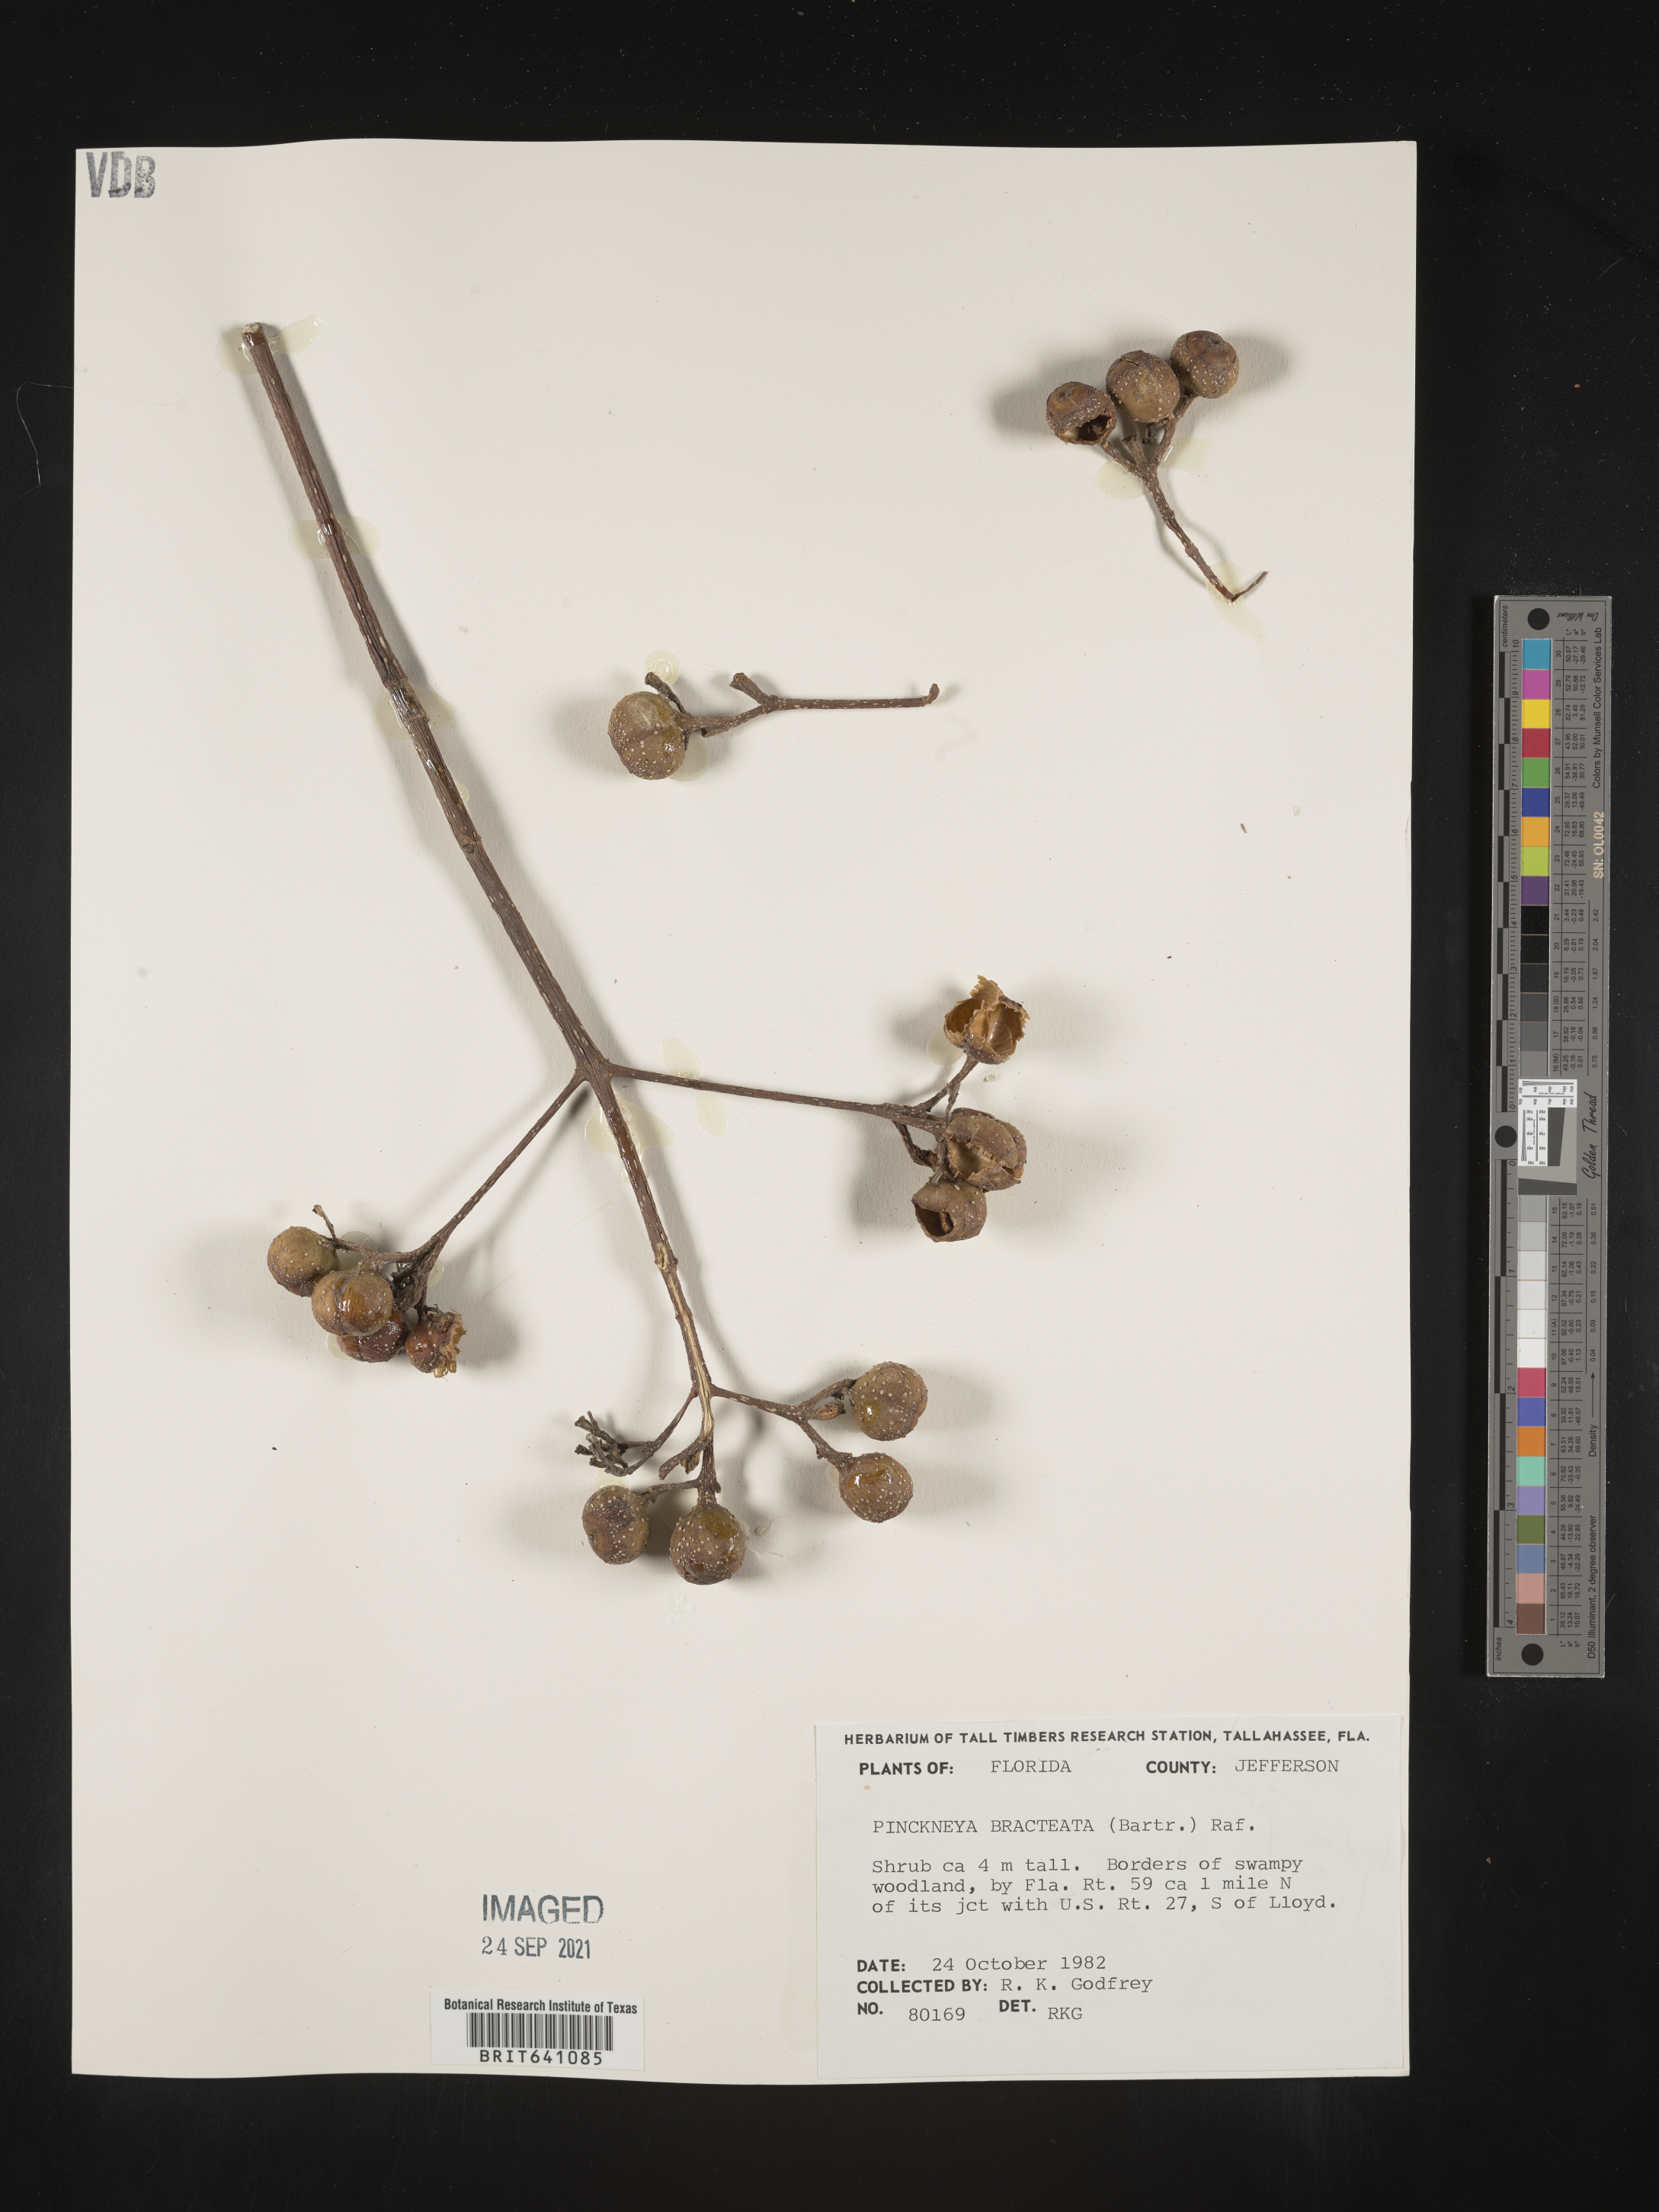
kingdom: Plantae
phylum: Tracheophyta
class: Magnoliopsida
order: Gentianales
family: Rubiaceae
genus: Pinckneya
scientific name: Pinckneya pubens
